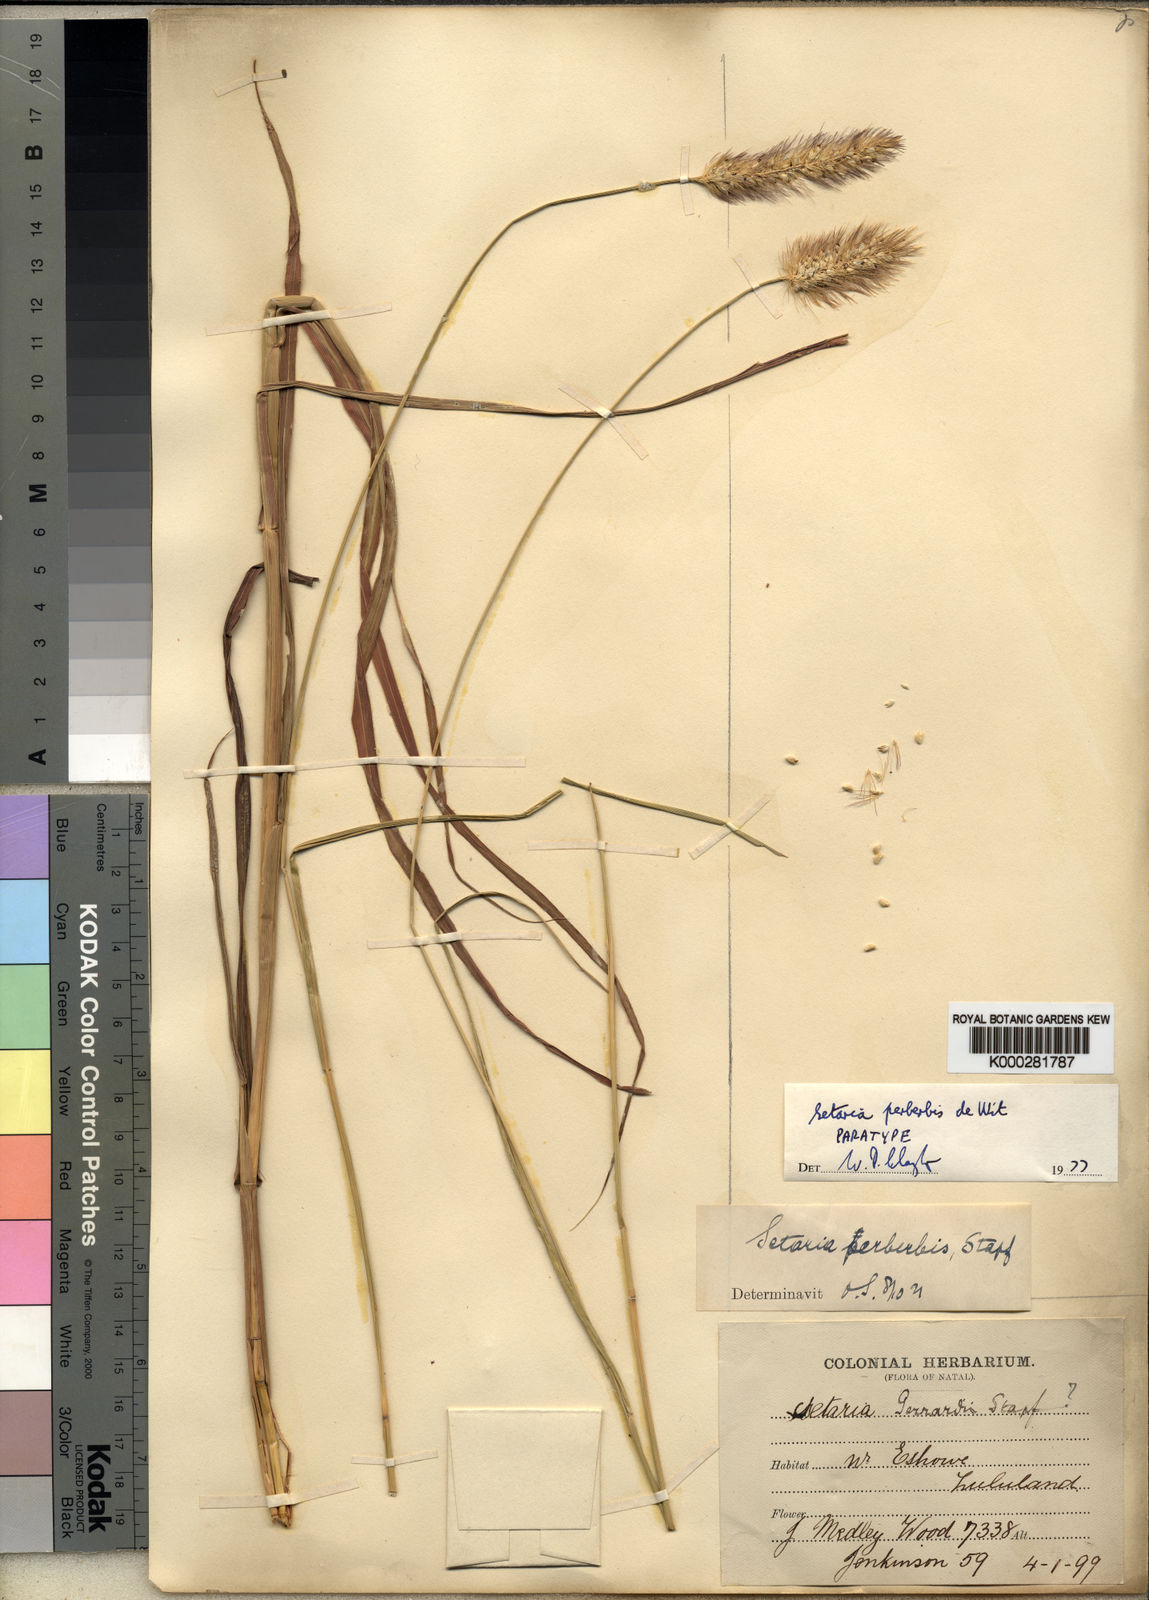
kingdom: Plantae
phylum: Tracheophyta
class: Liliopsida
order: Poales
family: Poaceae
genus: Setaria
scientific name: Setaria incrassata
